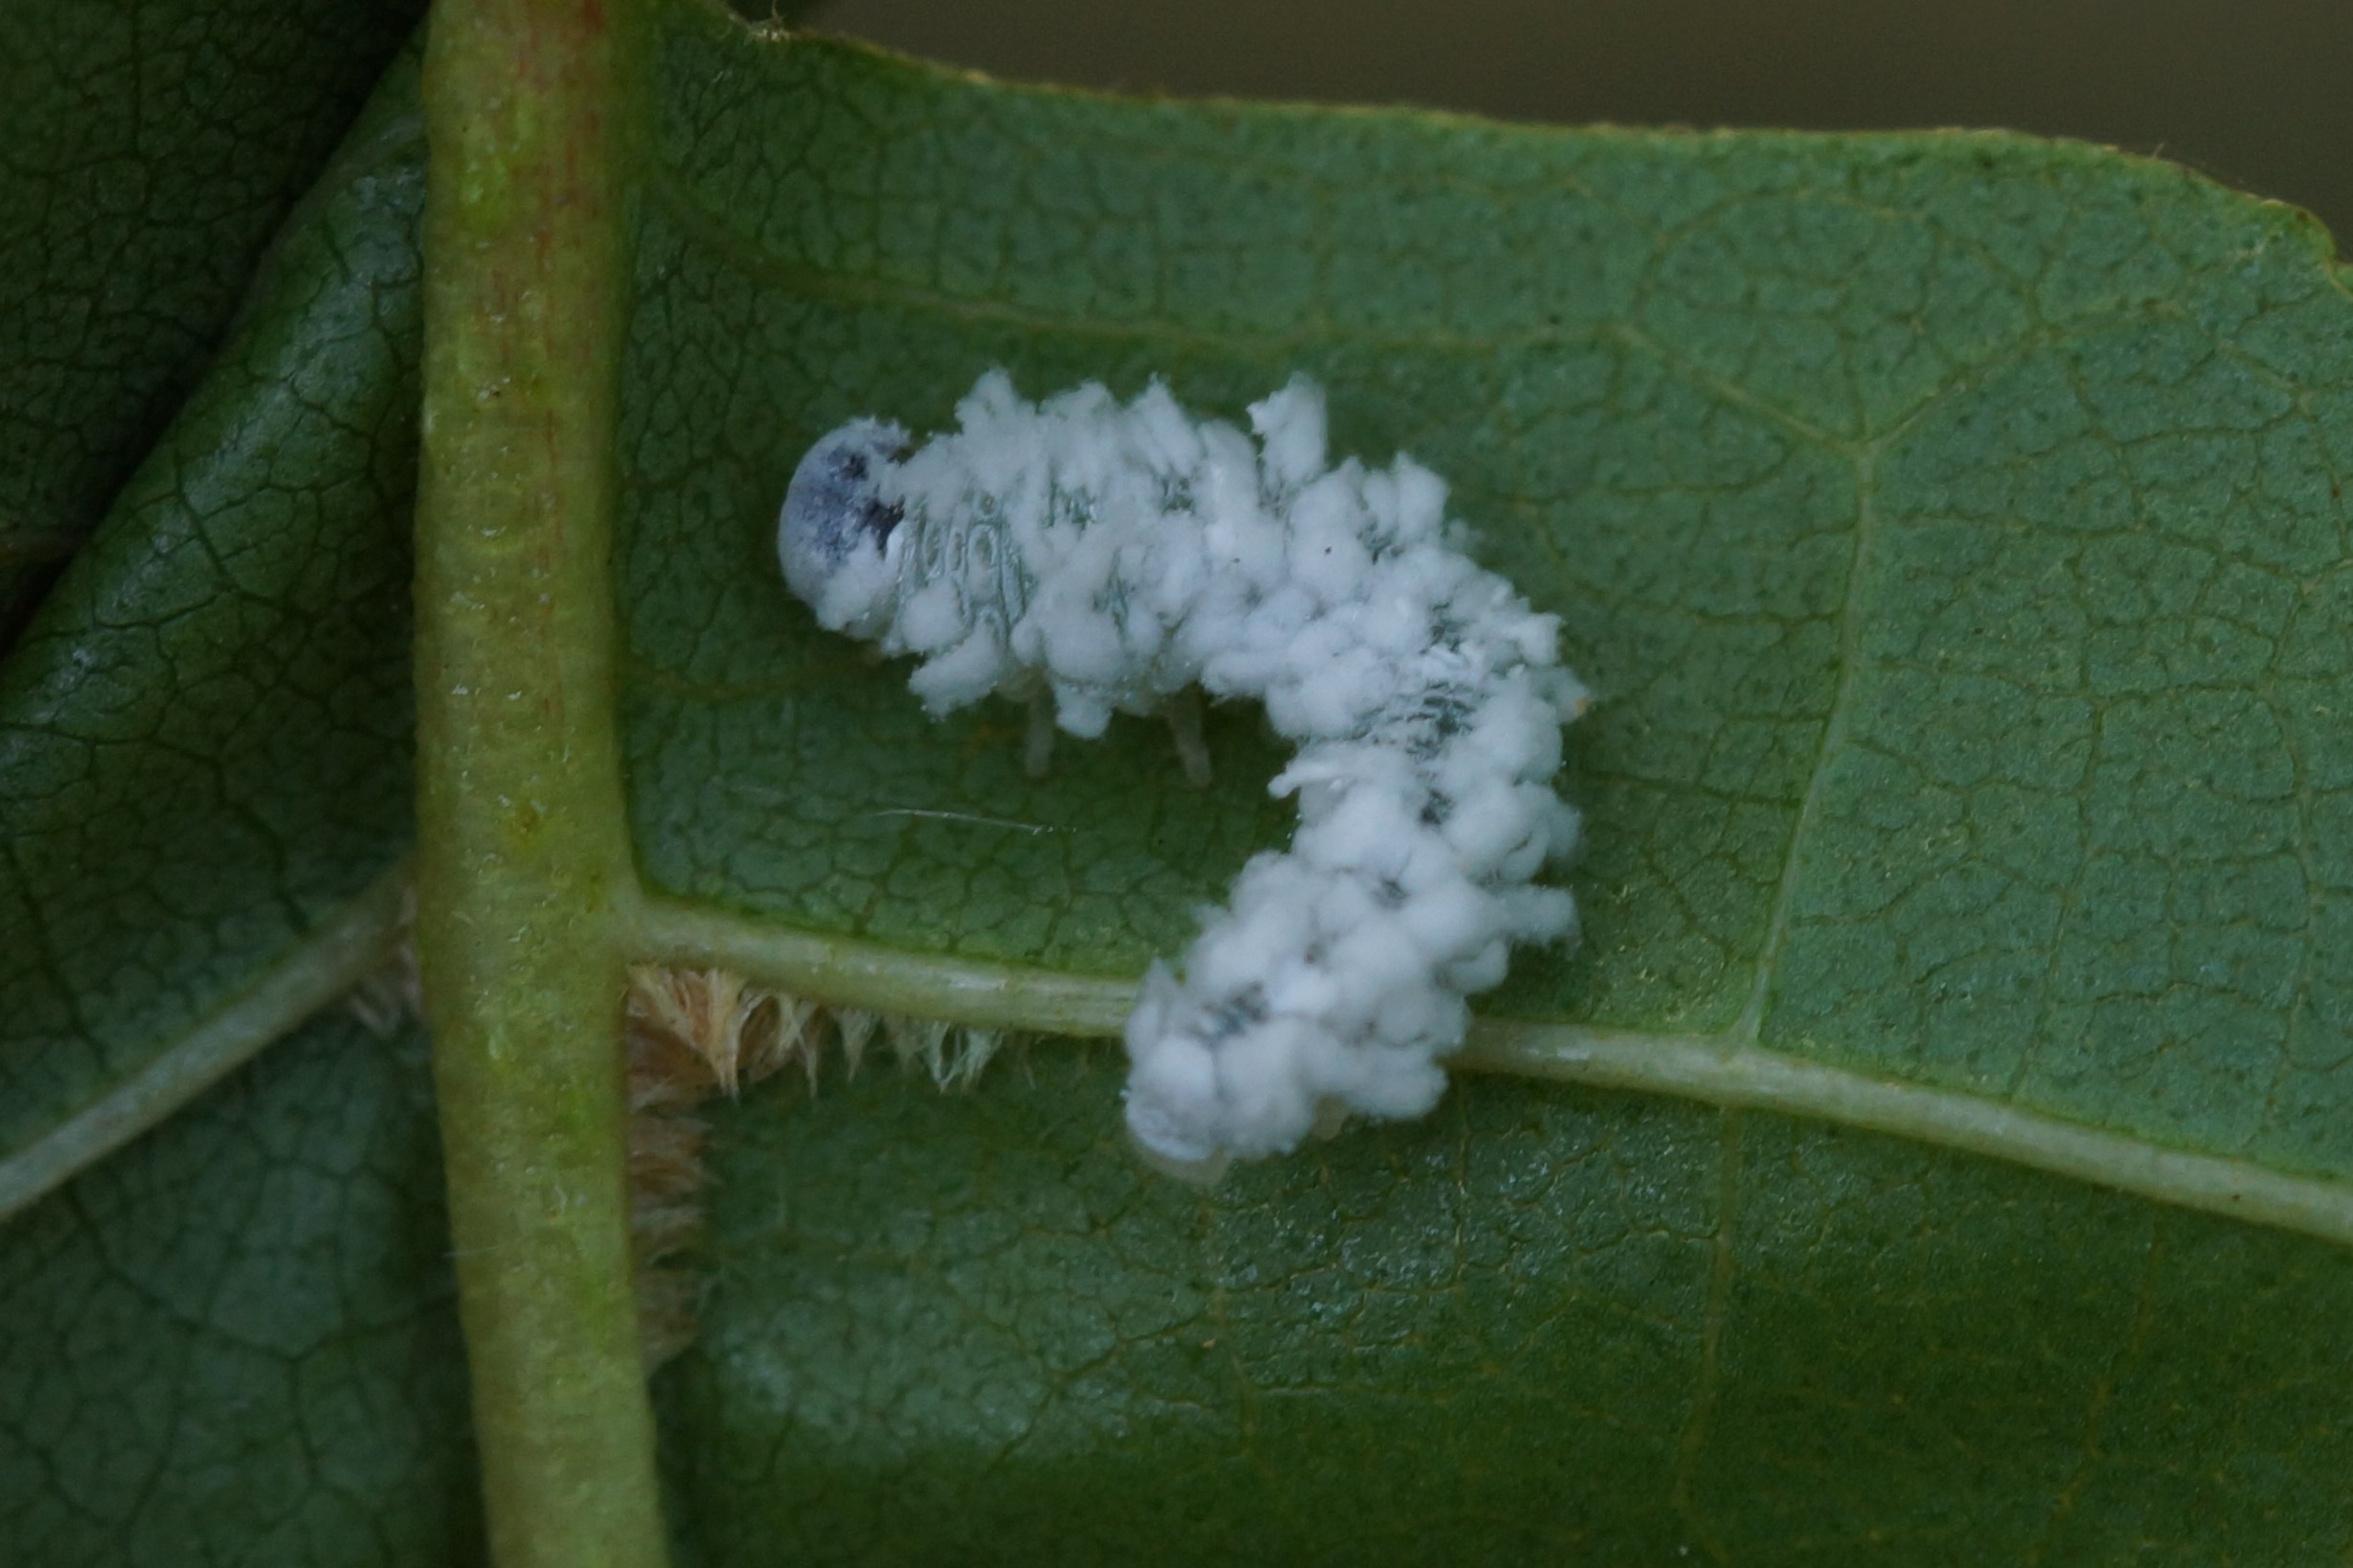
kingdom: Animalia
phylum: Arthropoda
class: Insecta
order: Hymenoptera
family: Tenthredinidae
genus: Eriocampa
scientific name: Eriocampa ovata
